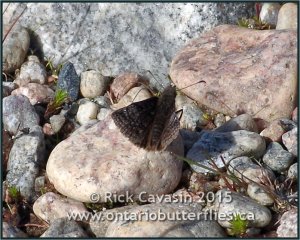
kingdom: Animalia
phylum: Arthropoda
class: Insecta
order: Lepidoptera
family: Hesperiidae
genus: Erynnis
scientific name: Erynnis icelus
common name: Dreamy Duskywing
